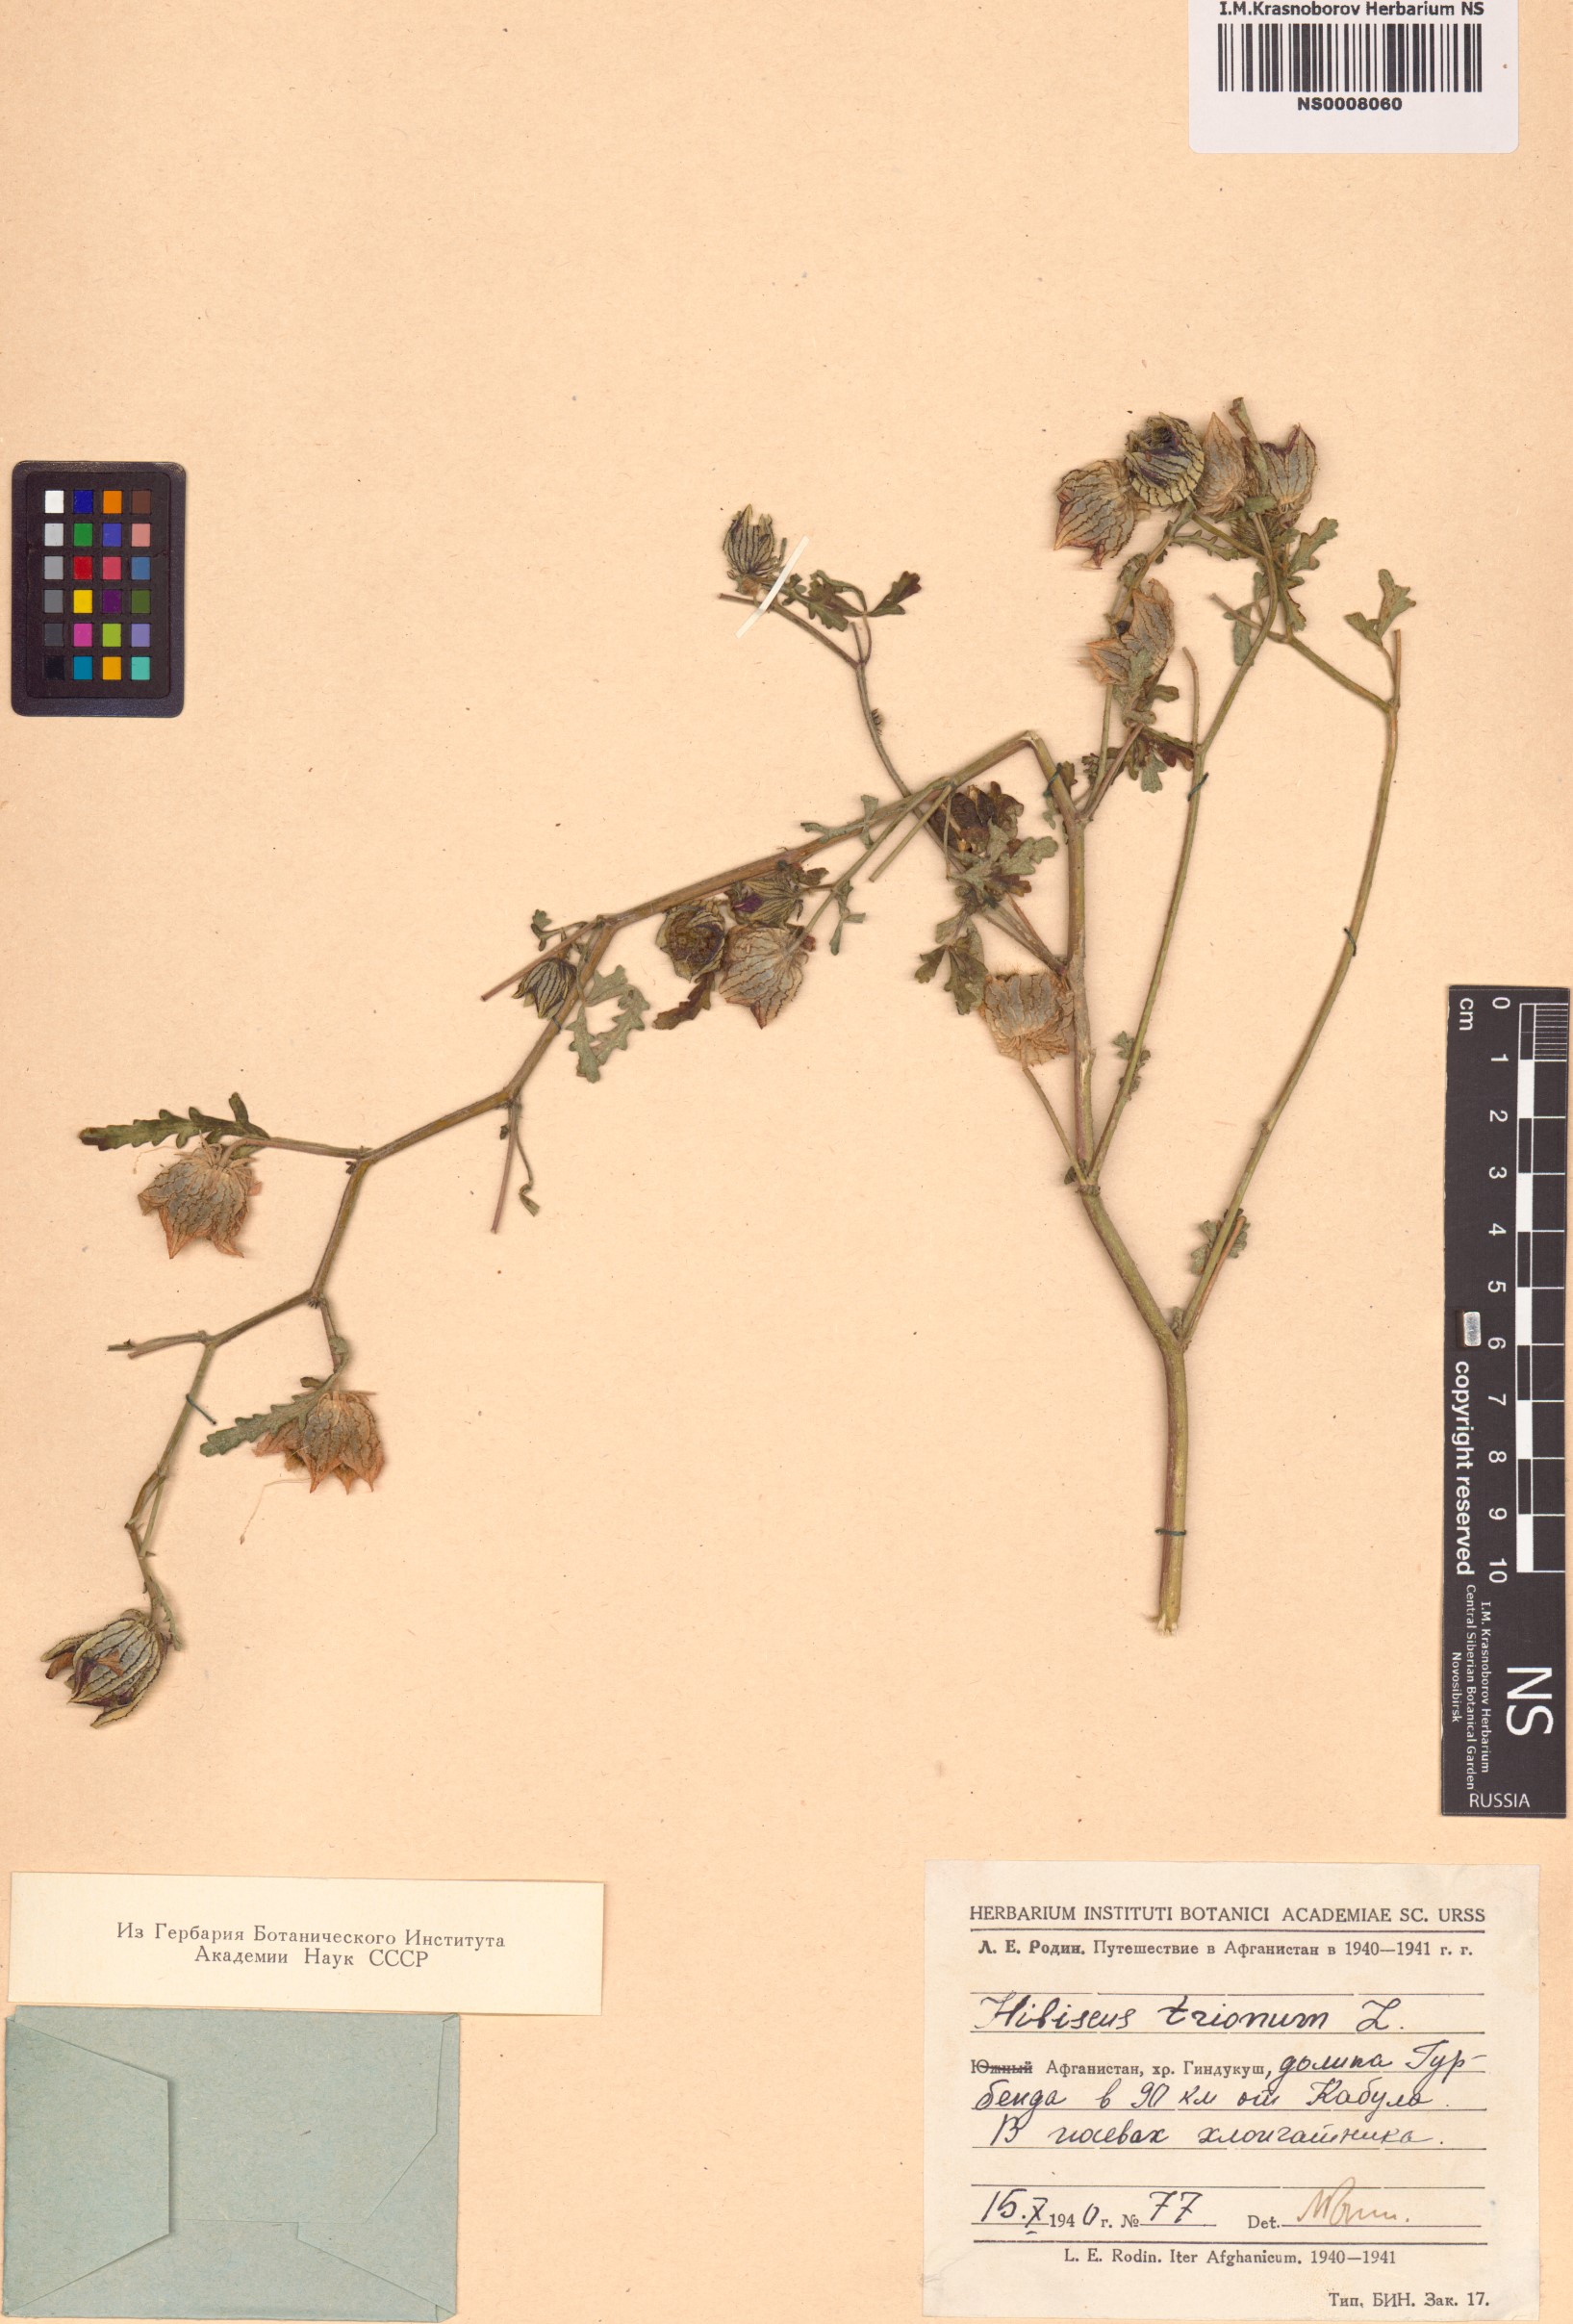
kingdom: Plantae
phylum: Tracheophyta
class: Magnoliopsida
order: Malvales
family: Malvaceae
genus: Hibiscus
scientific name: Hibiscus trionum
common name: Bladder ketmia
